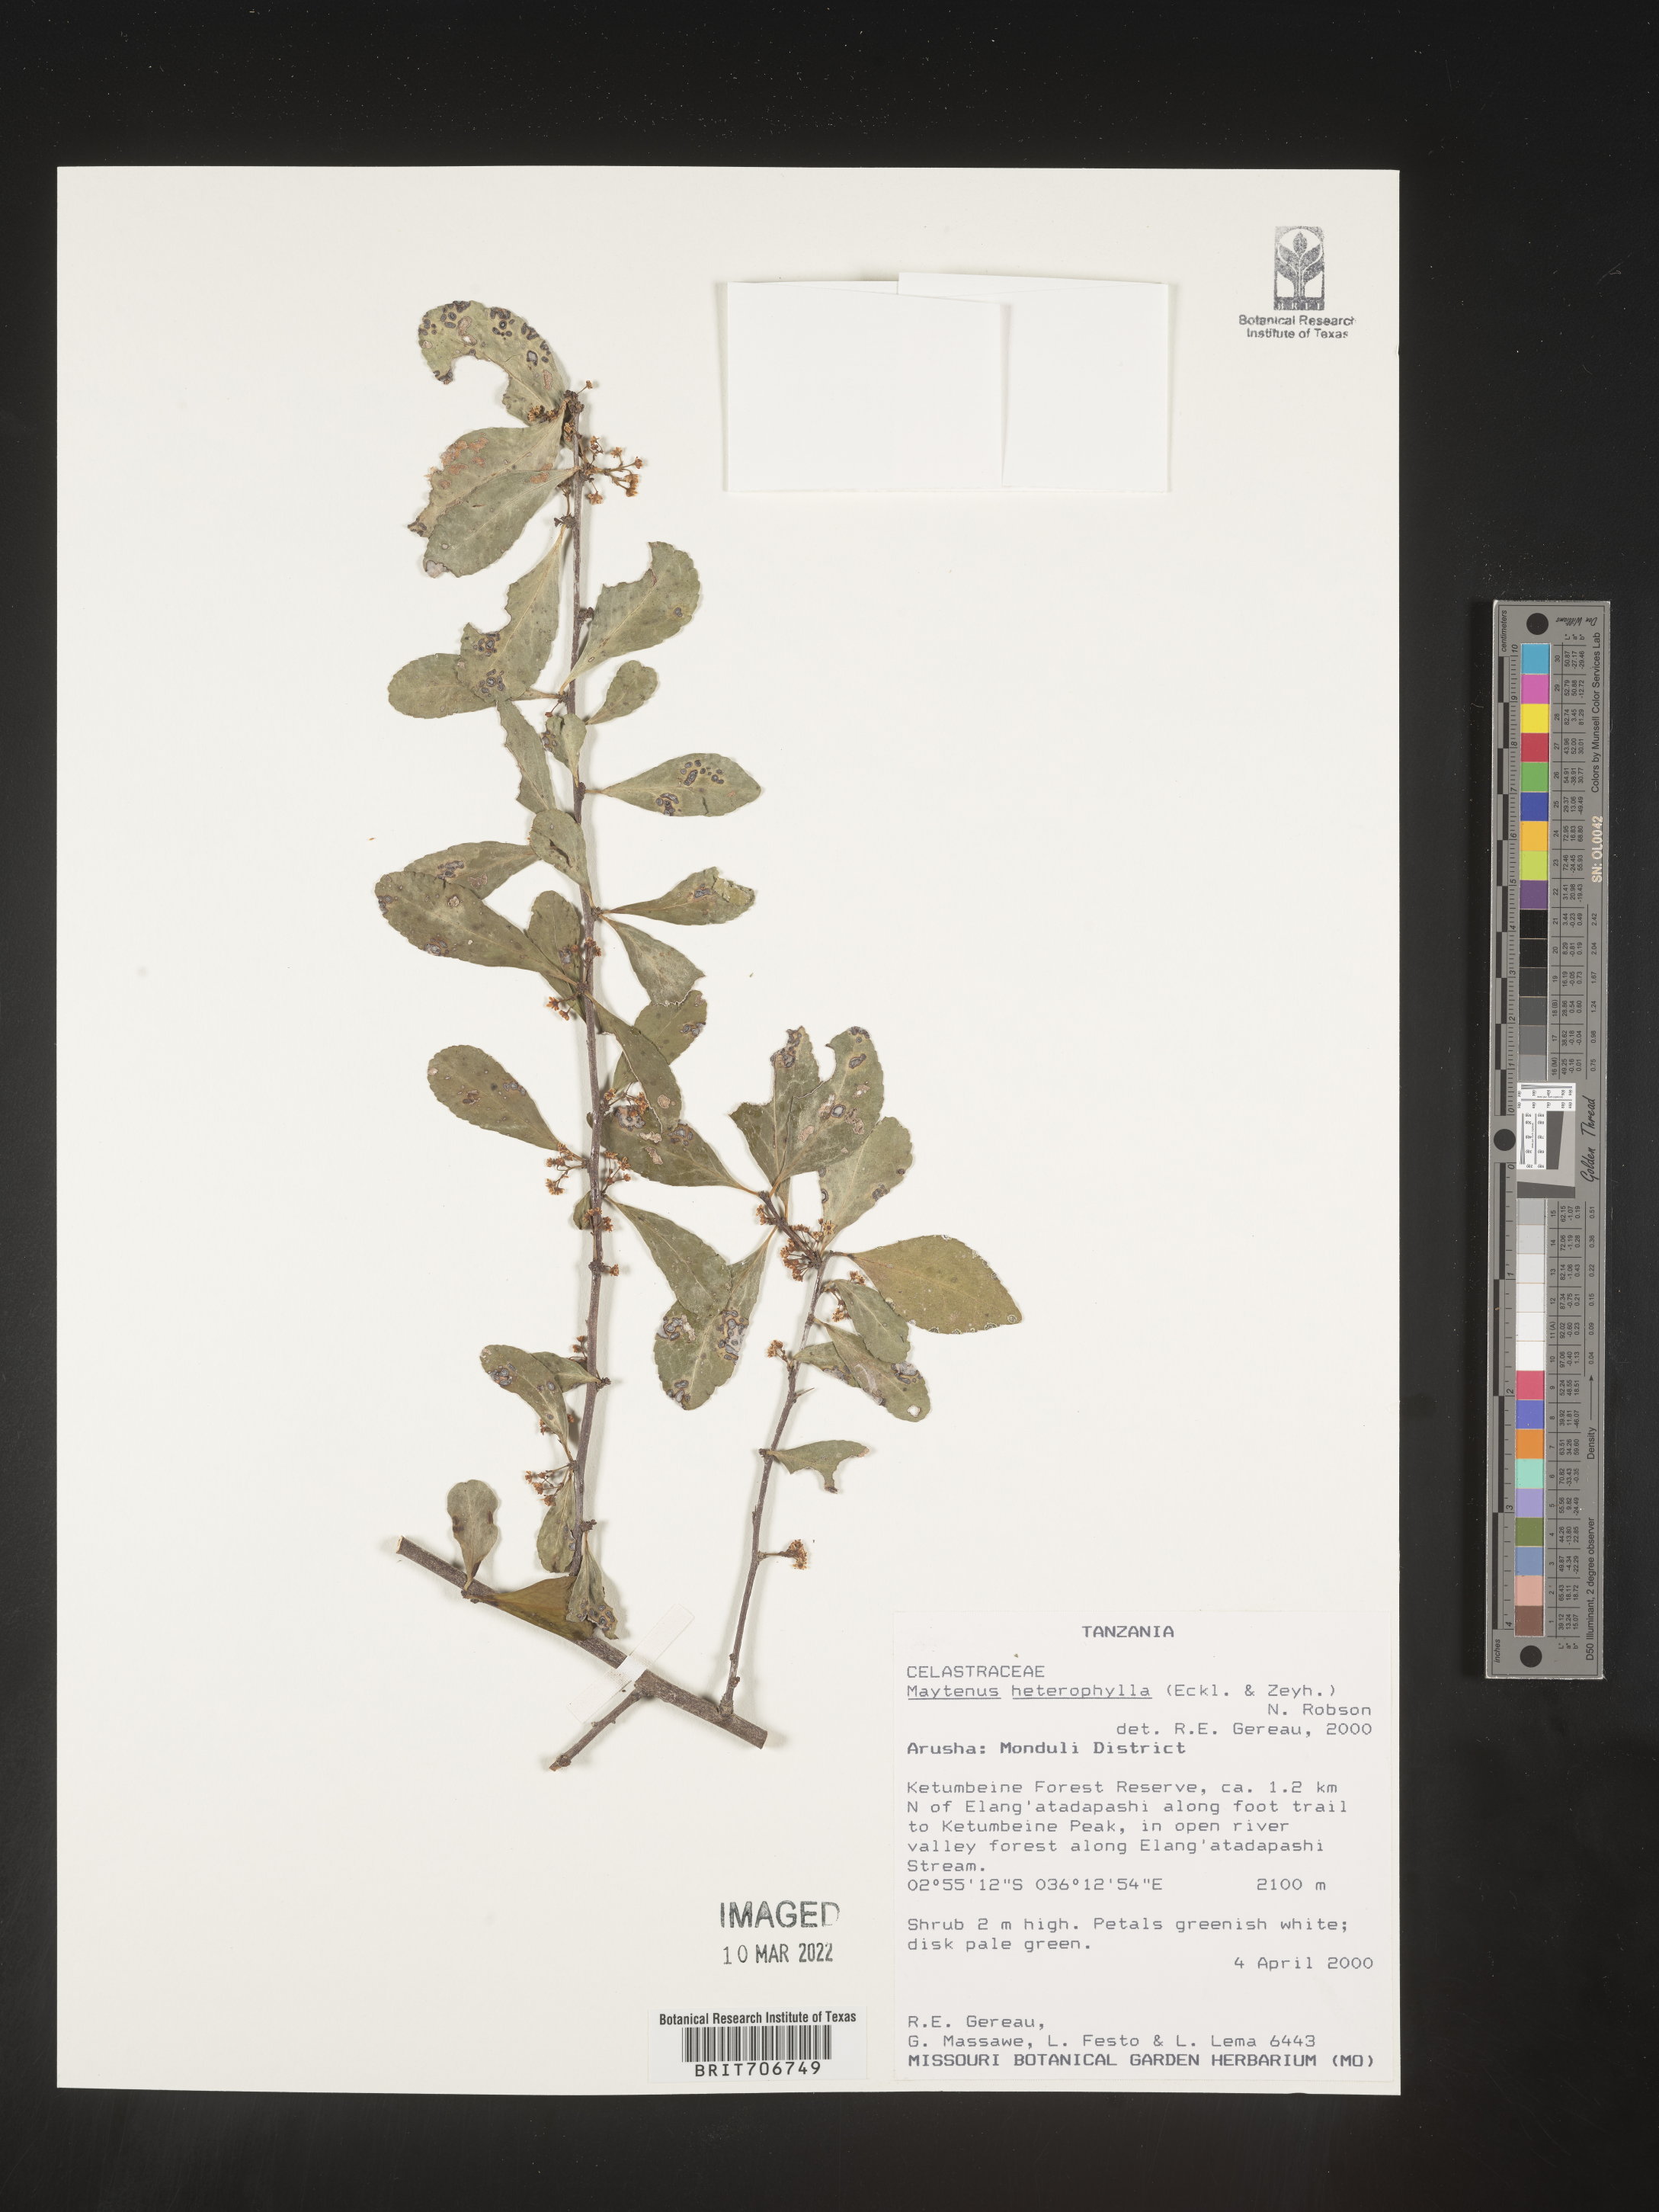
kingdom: Plantae
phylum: Tracheophyta
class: Magnoliopsida
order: Celastrales
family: Celastraceae
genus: Maytenus
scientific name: Maytenus
